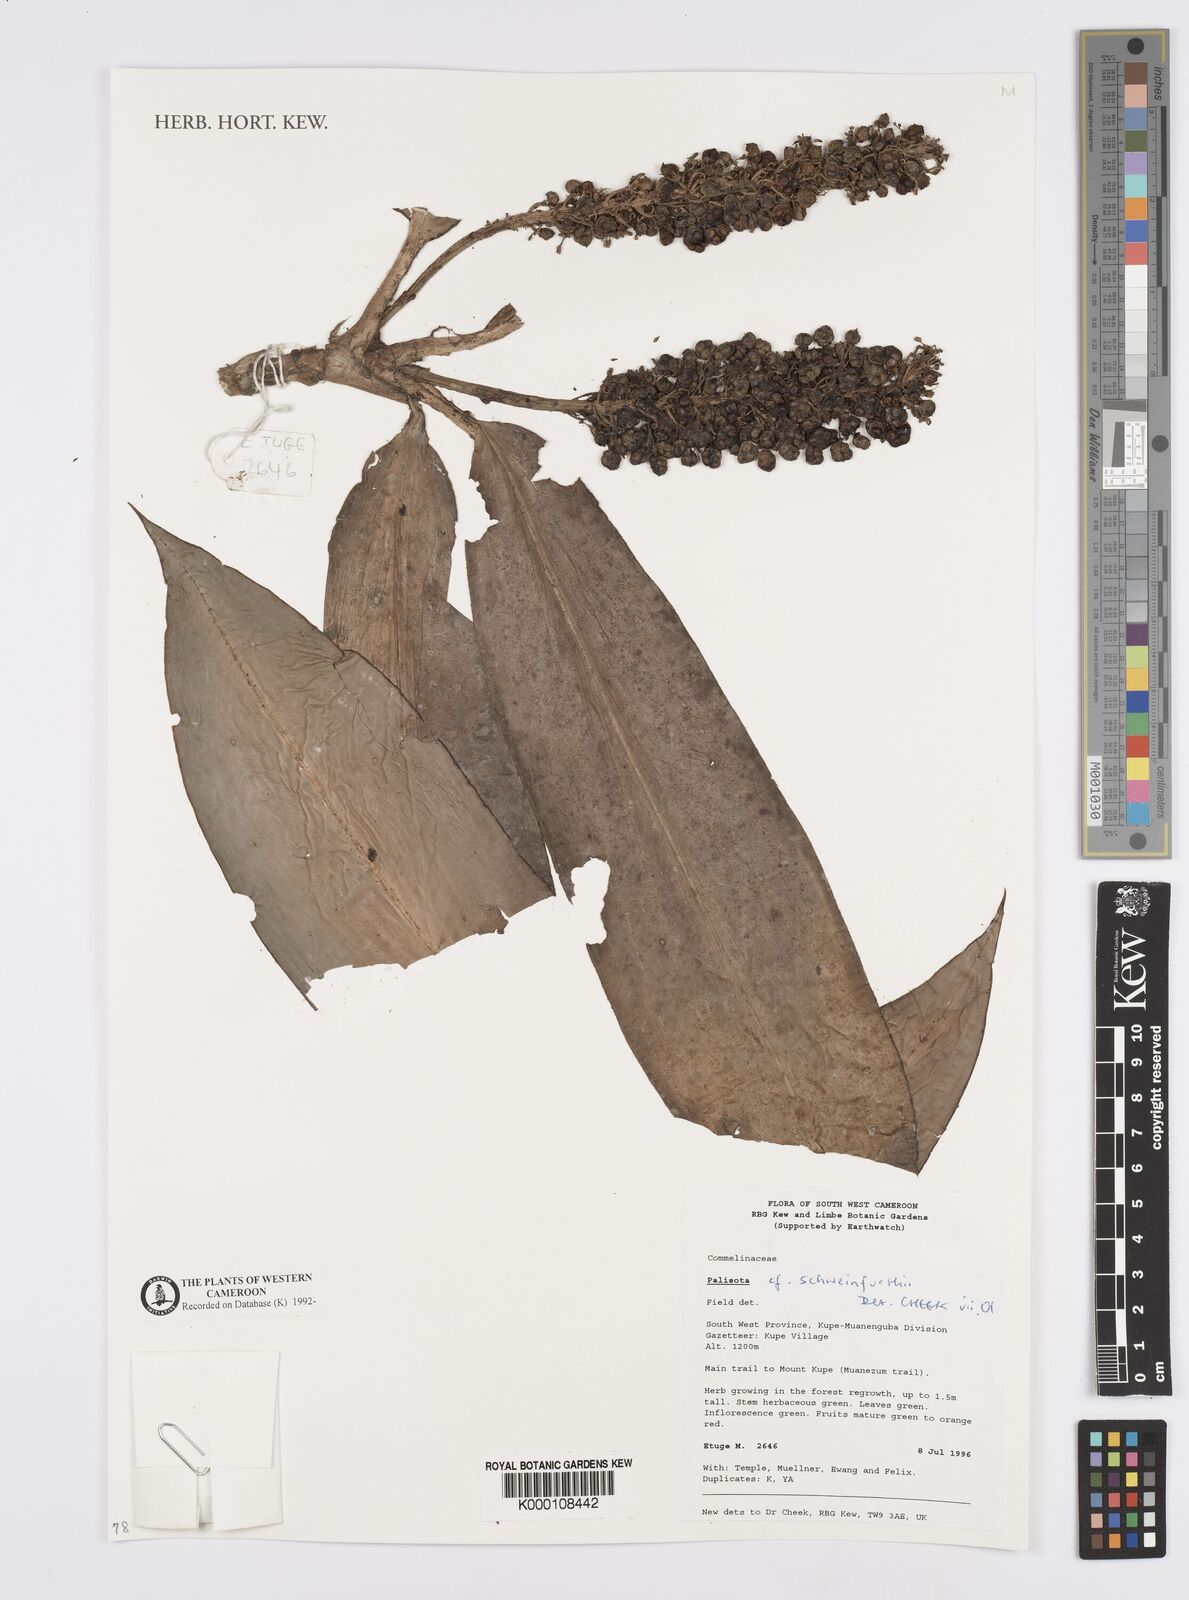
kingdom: Plantae
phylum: Tracheophyta
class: Liliopsida
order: Commelinales
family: Commelinaceae
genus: Palisota
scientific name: Palisota schweinfurthii
